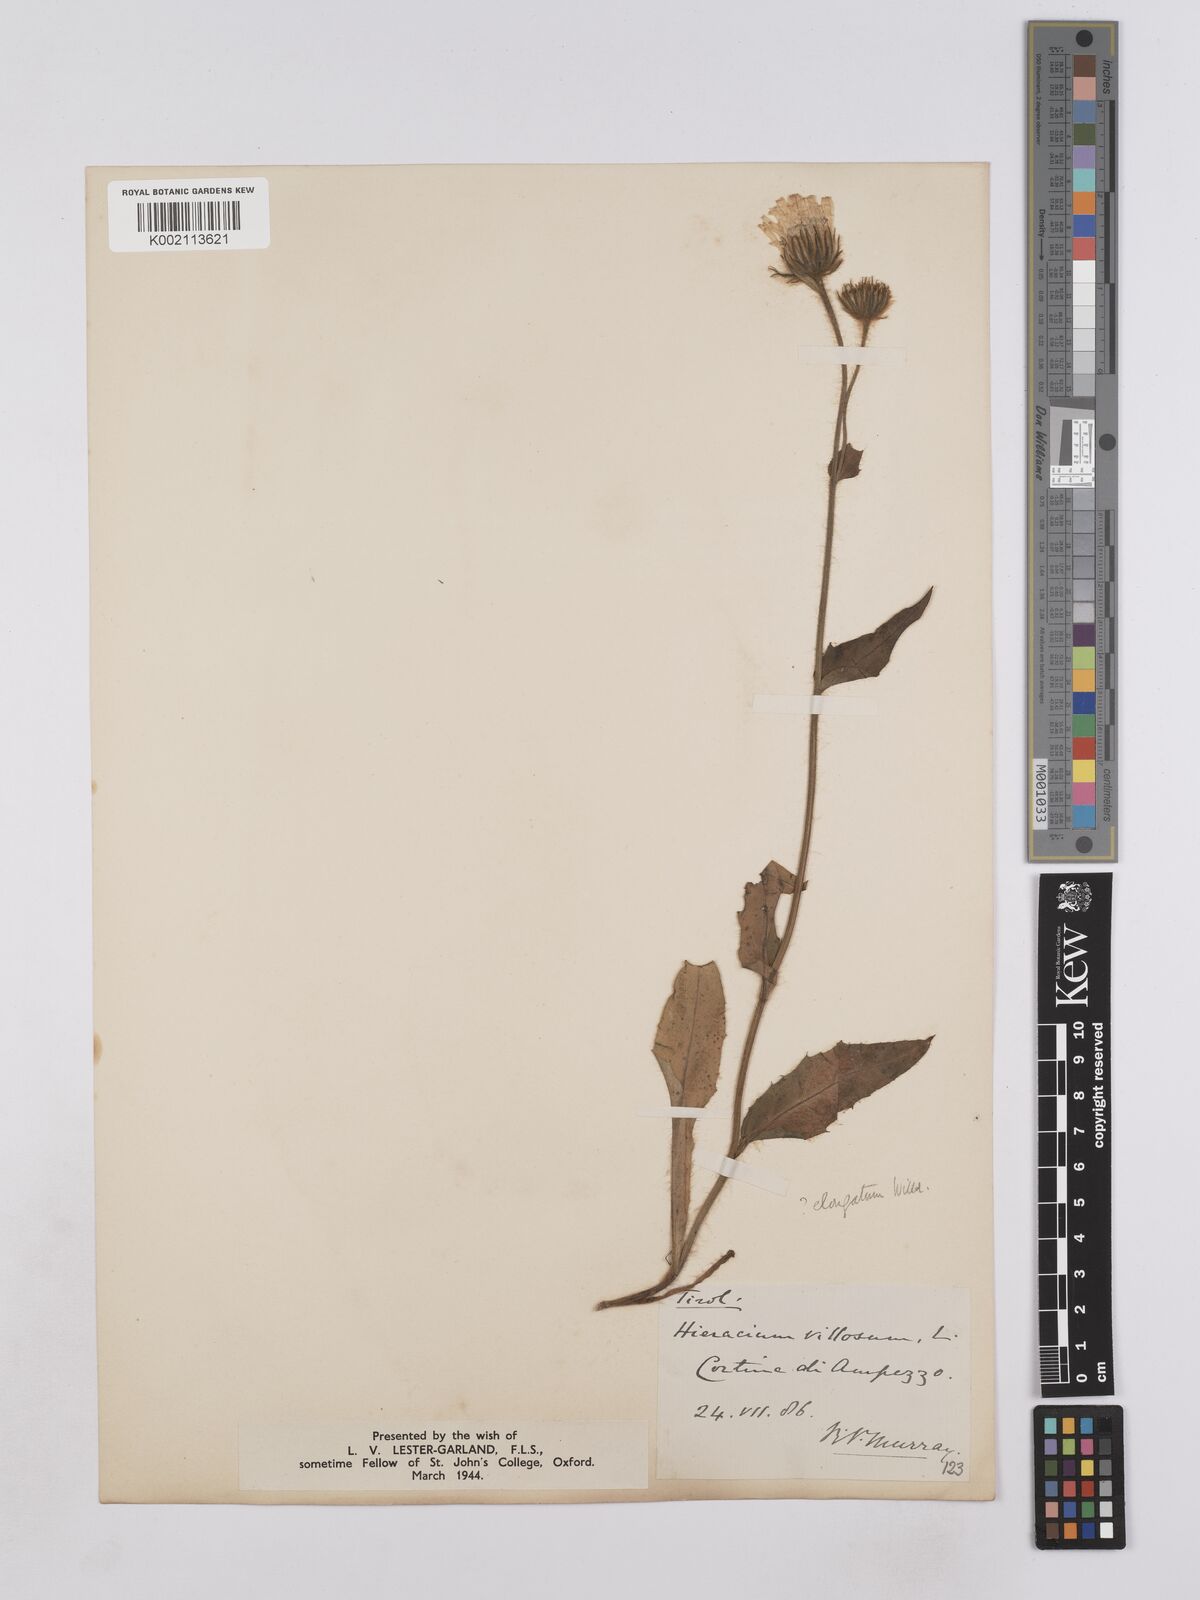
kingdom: Plantae
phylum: Tracheophyta
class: Magnoliopsida
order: Asterales
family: Asteraceae
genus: Hieracium
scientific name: Hieracium villosum
